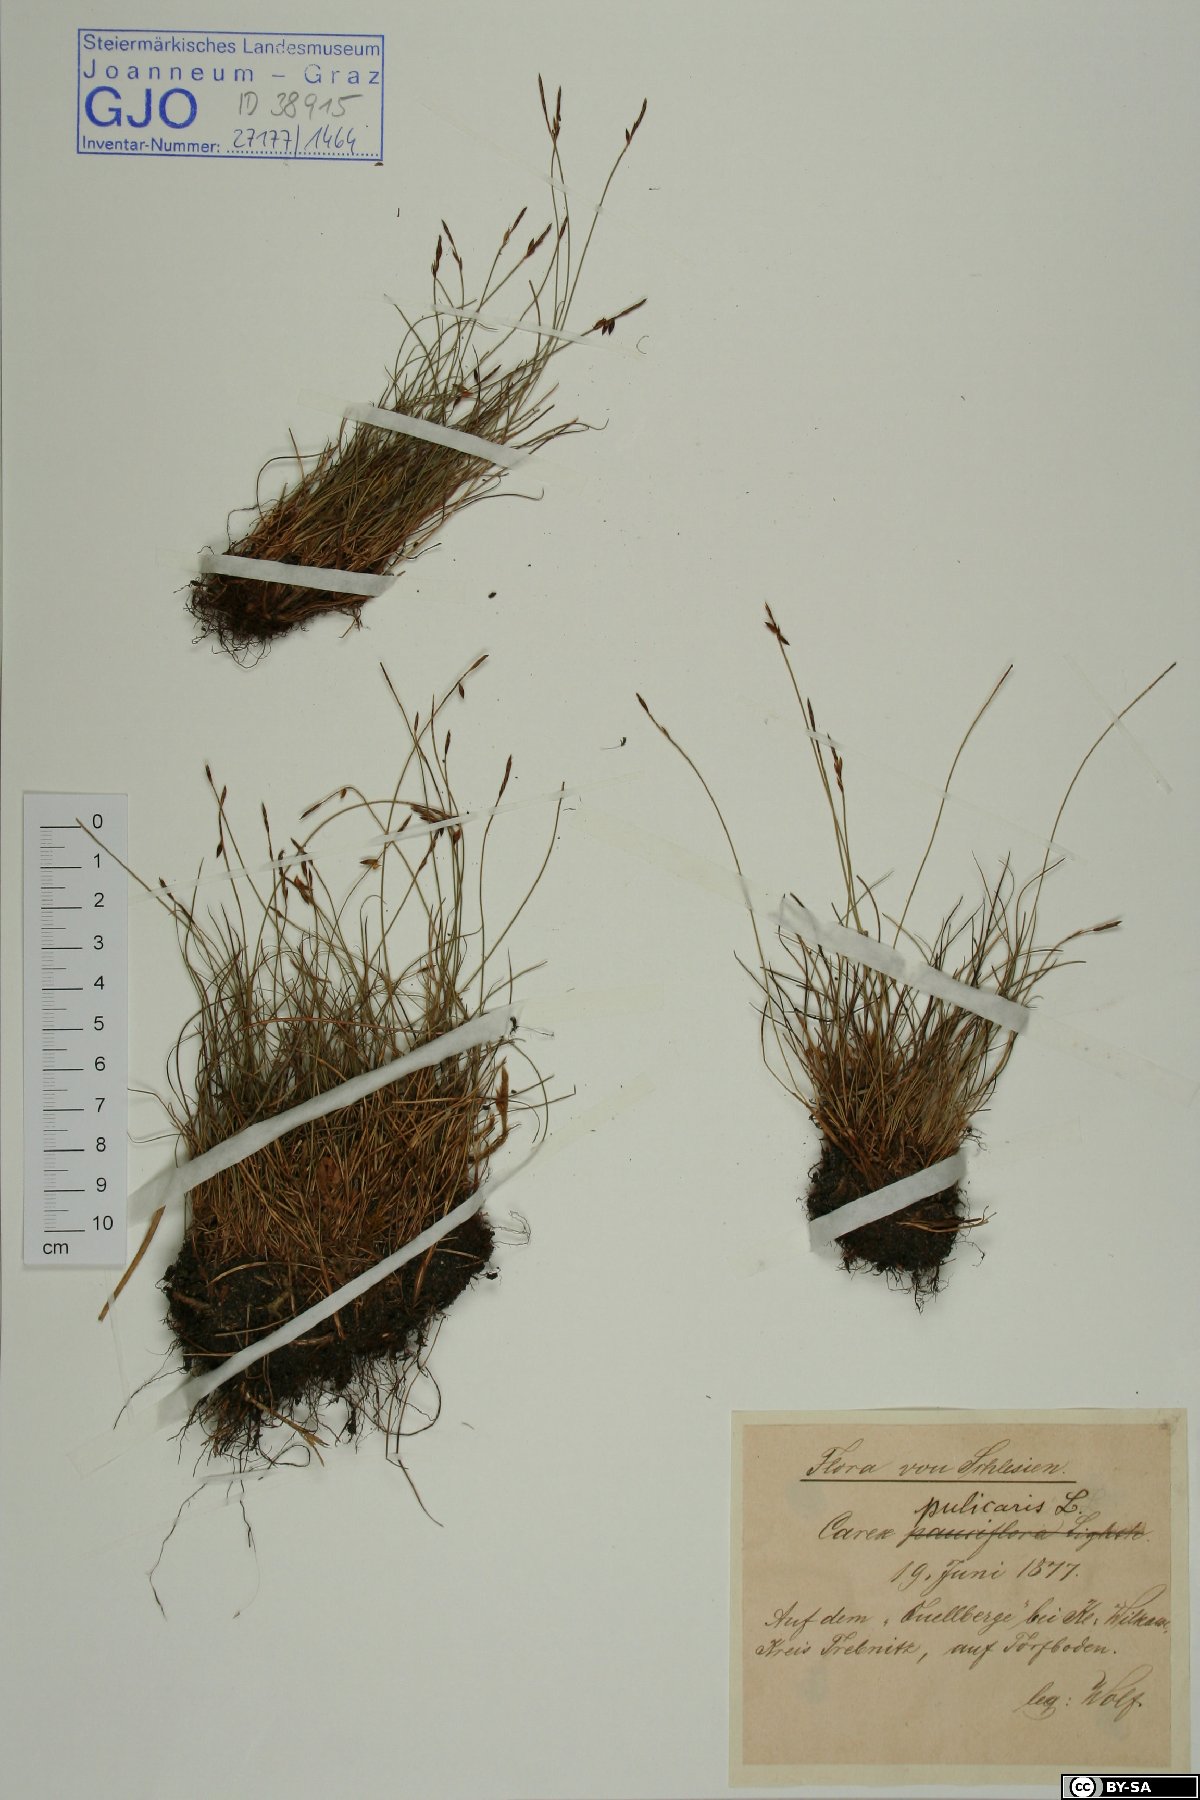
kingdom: Plantae
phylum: Tracheophyta
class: Liliopsida
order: Poales
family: Cyperaceae
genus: Carex
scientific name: Carex pulicaris
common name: Flea sedge
